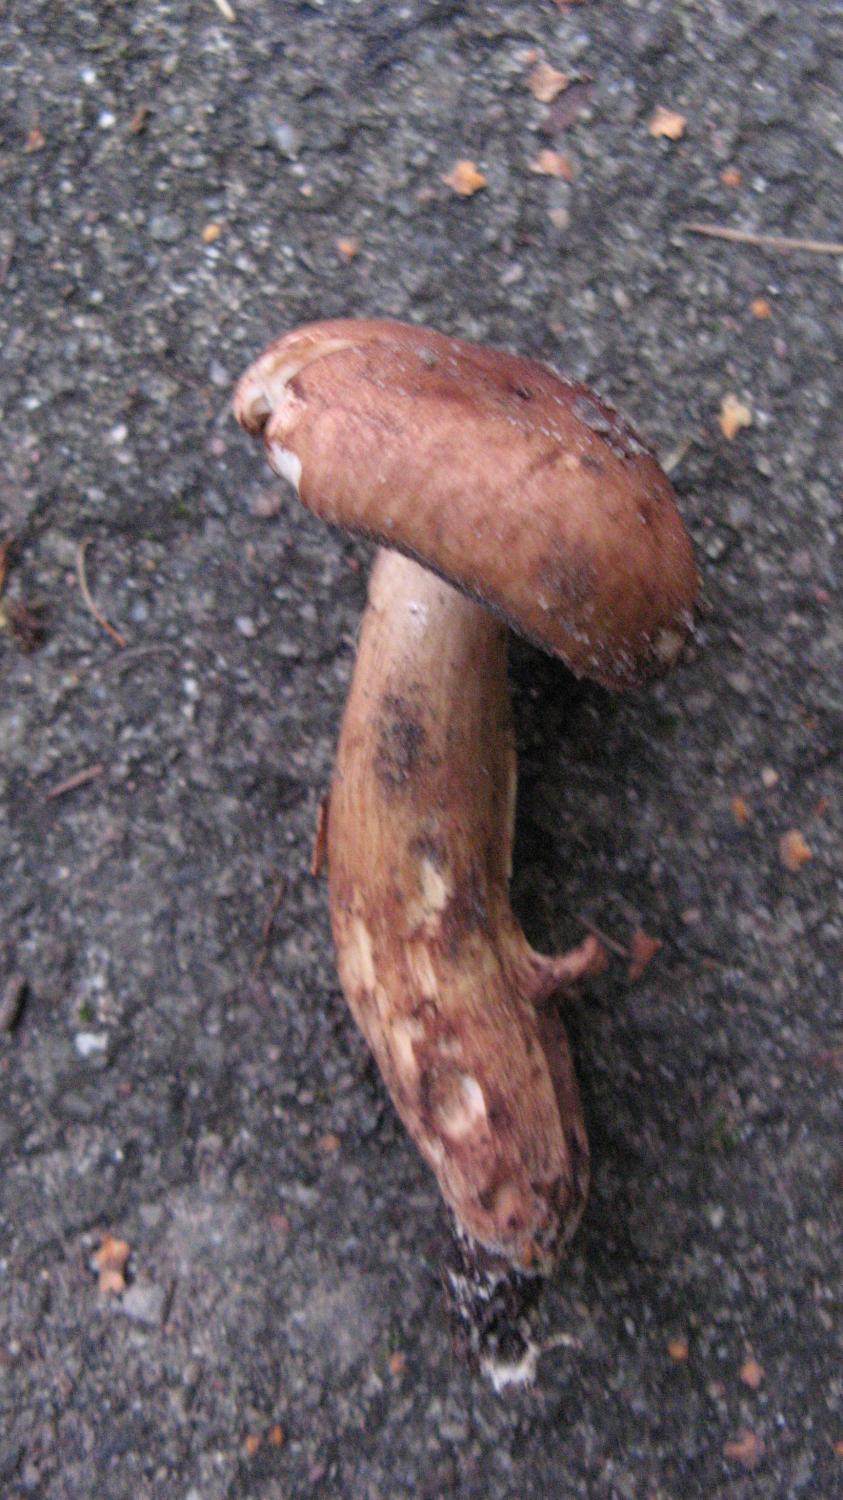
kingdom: Fungi
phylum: Basidiomycota
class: Agaricomycetes
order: Agaricales
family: Tricholomataceae
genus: Tricholoma
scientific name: Tricholoma fulvum
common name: birke-ridderhat
